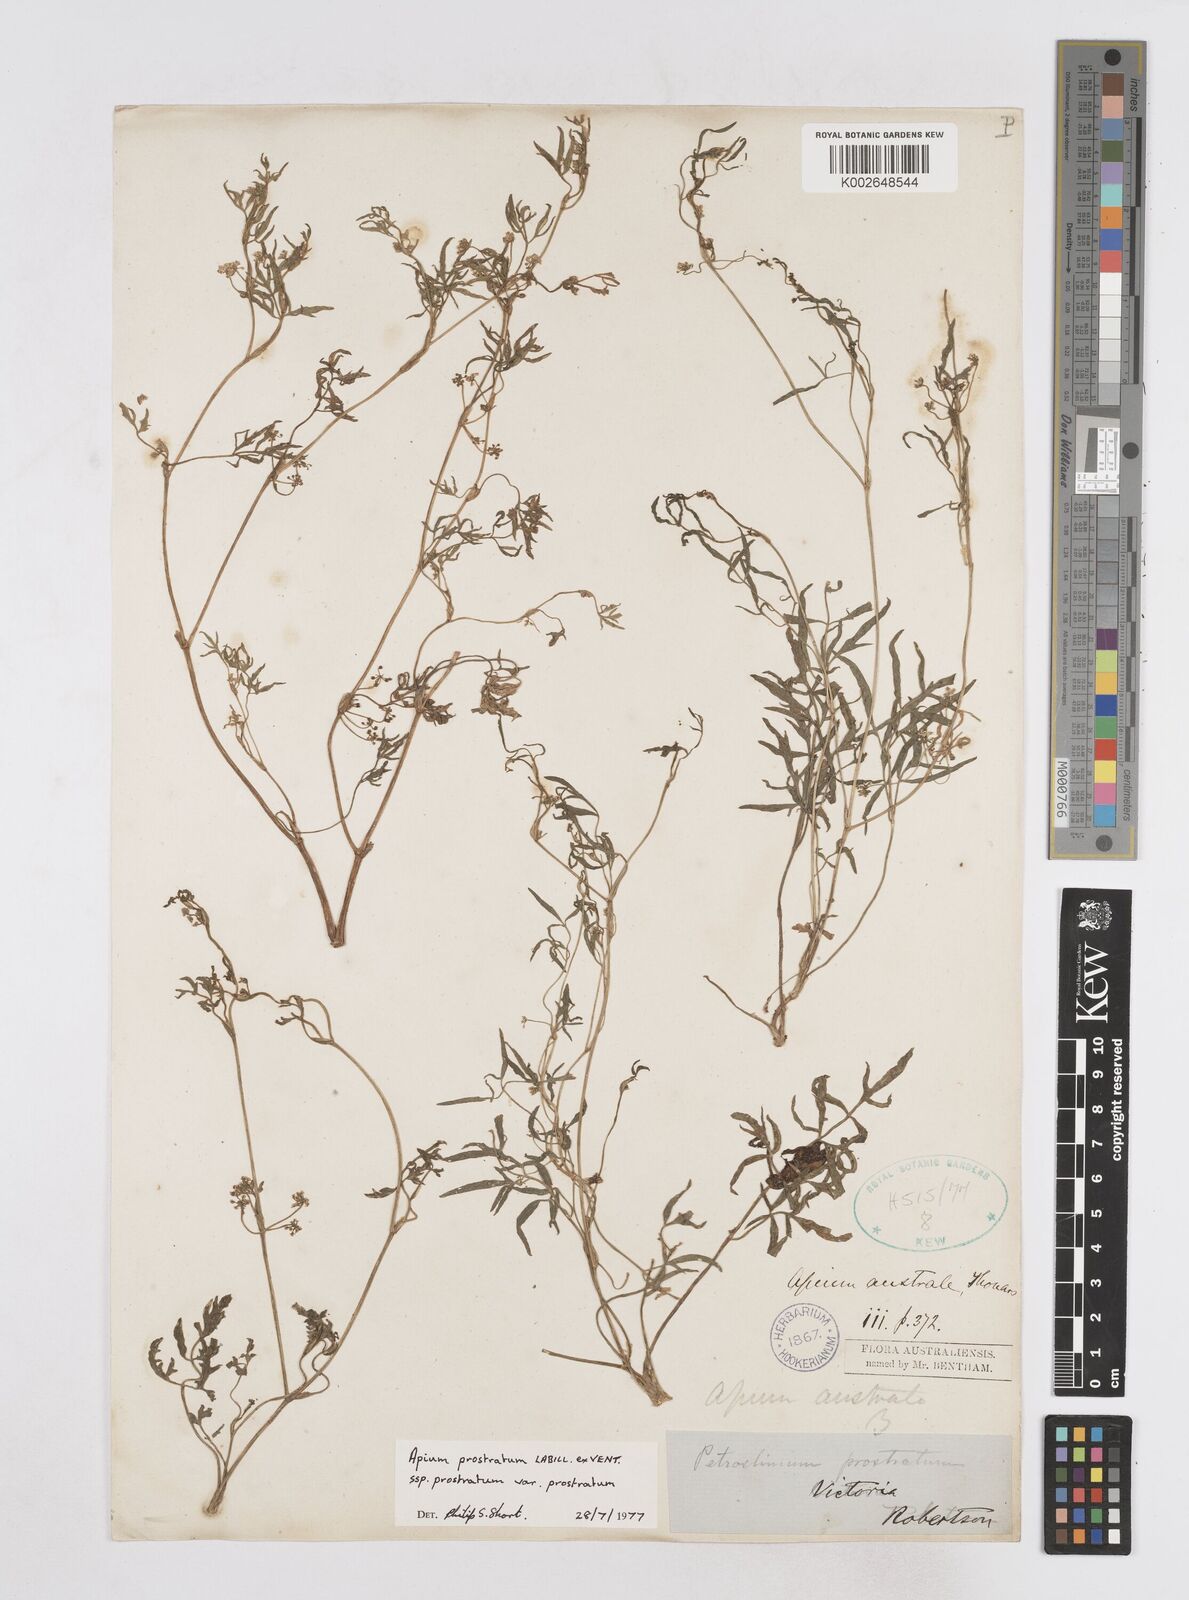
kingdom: Plantae
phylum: Tracheophyta
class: Magnoliopsida
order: Apiales
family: Apiaceae
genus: Apium
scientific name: Apium prostratum
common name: Prostrate marshwort
